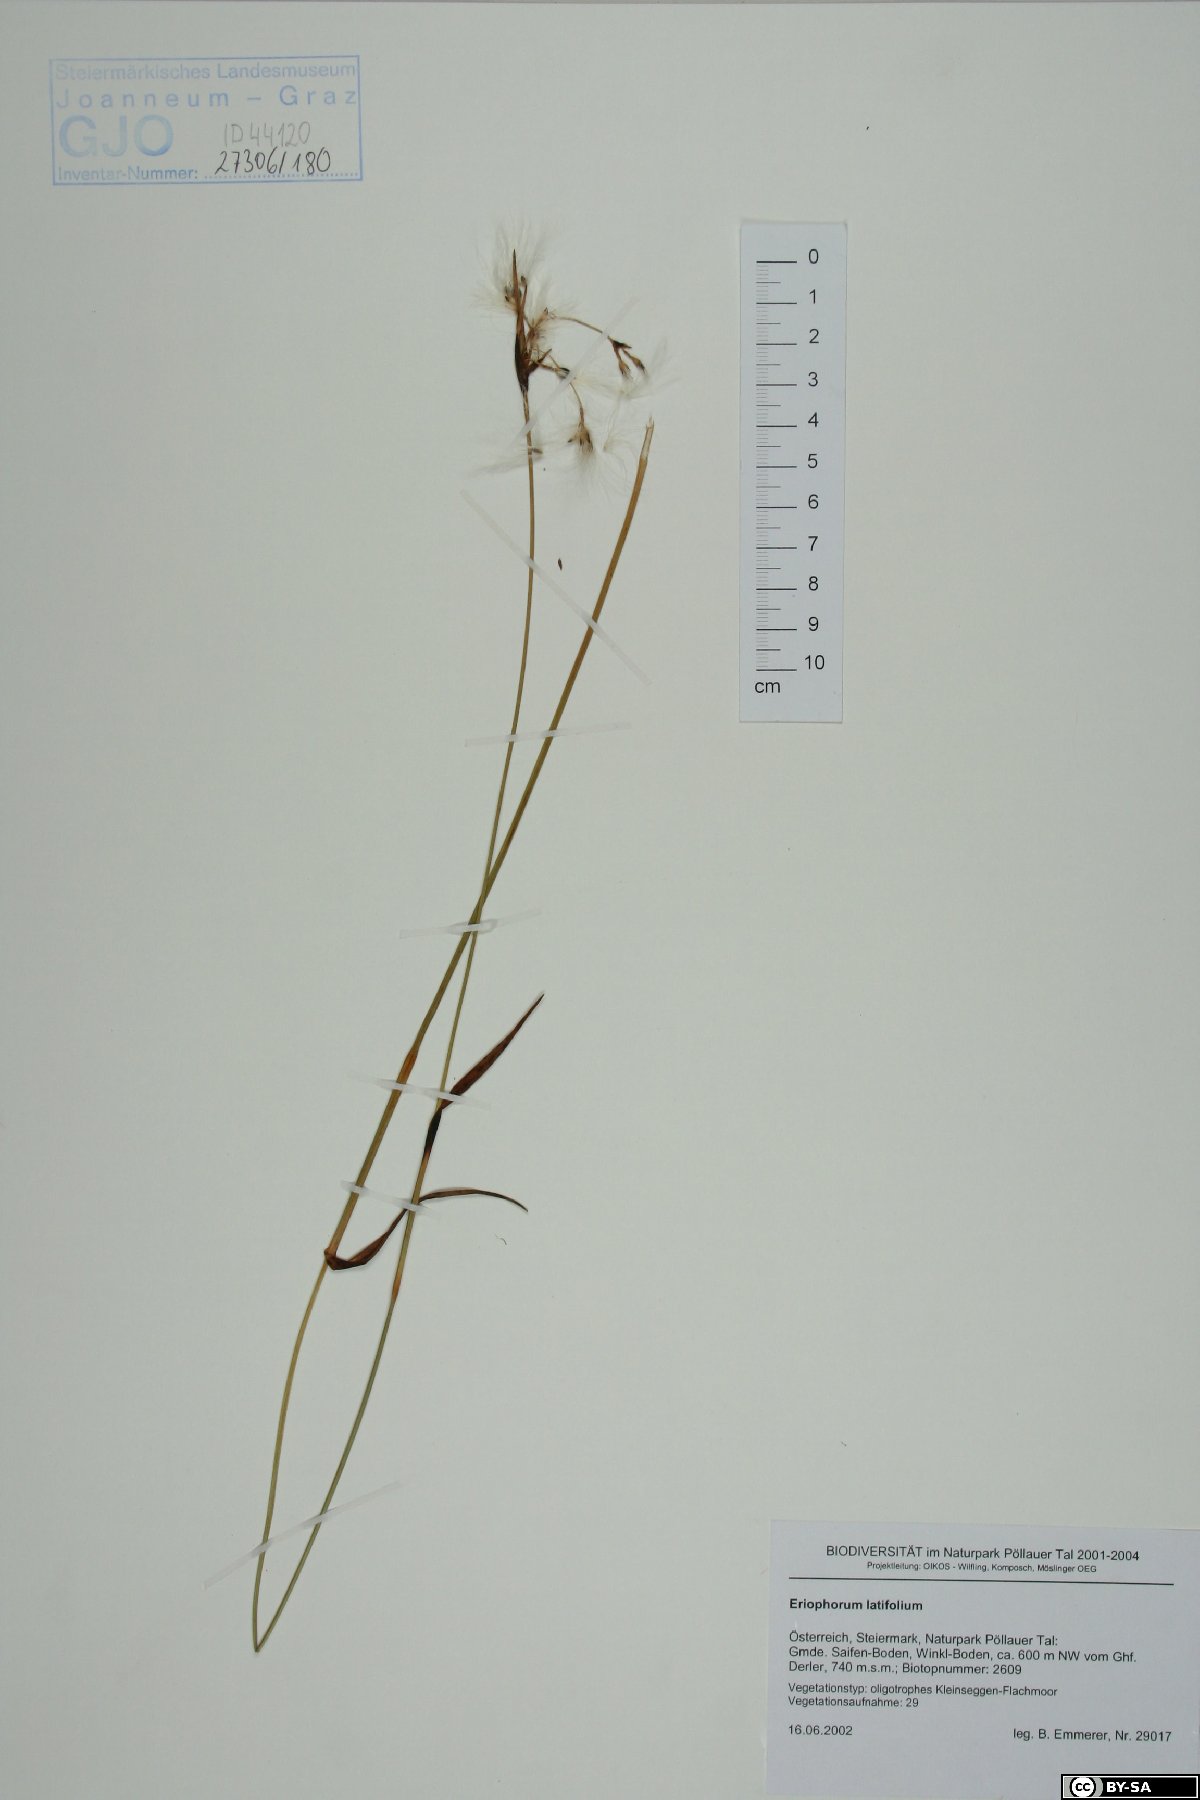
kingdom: Plantae
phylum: Tracheophyta
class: Liliopsida
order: Poales
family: Cyperaceae
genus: Eriophorum
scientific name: Eriophorum latifolium
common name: Broad-leaved cottongrass
